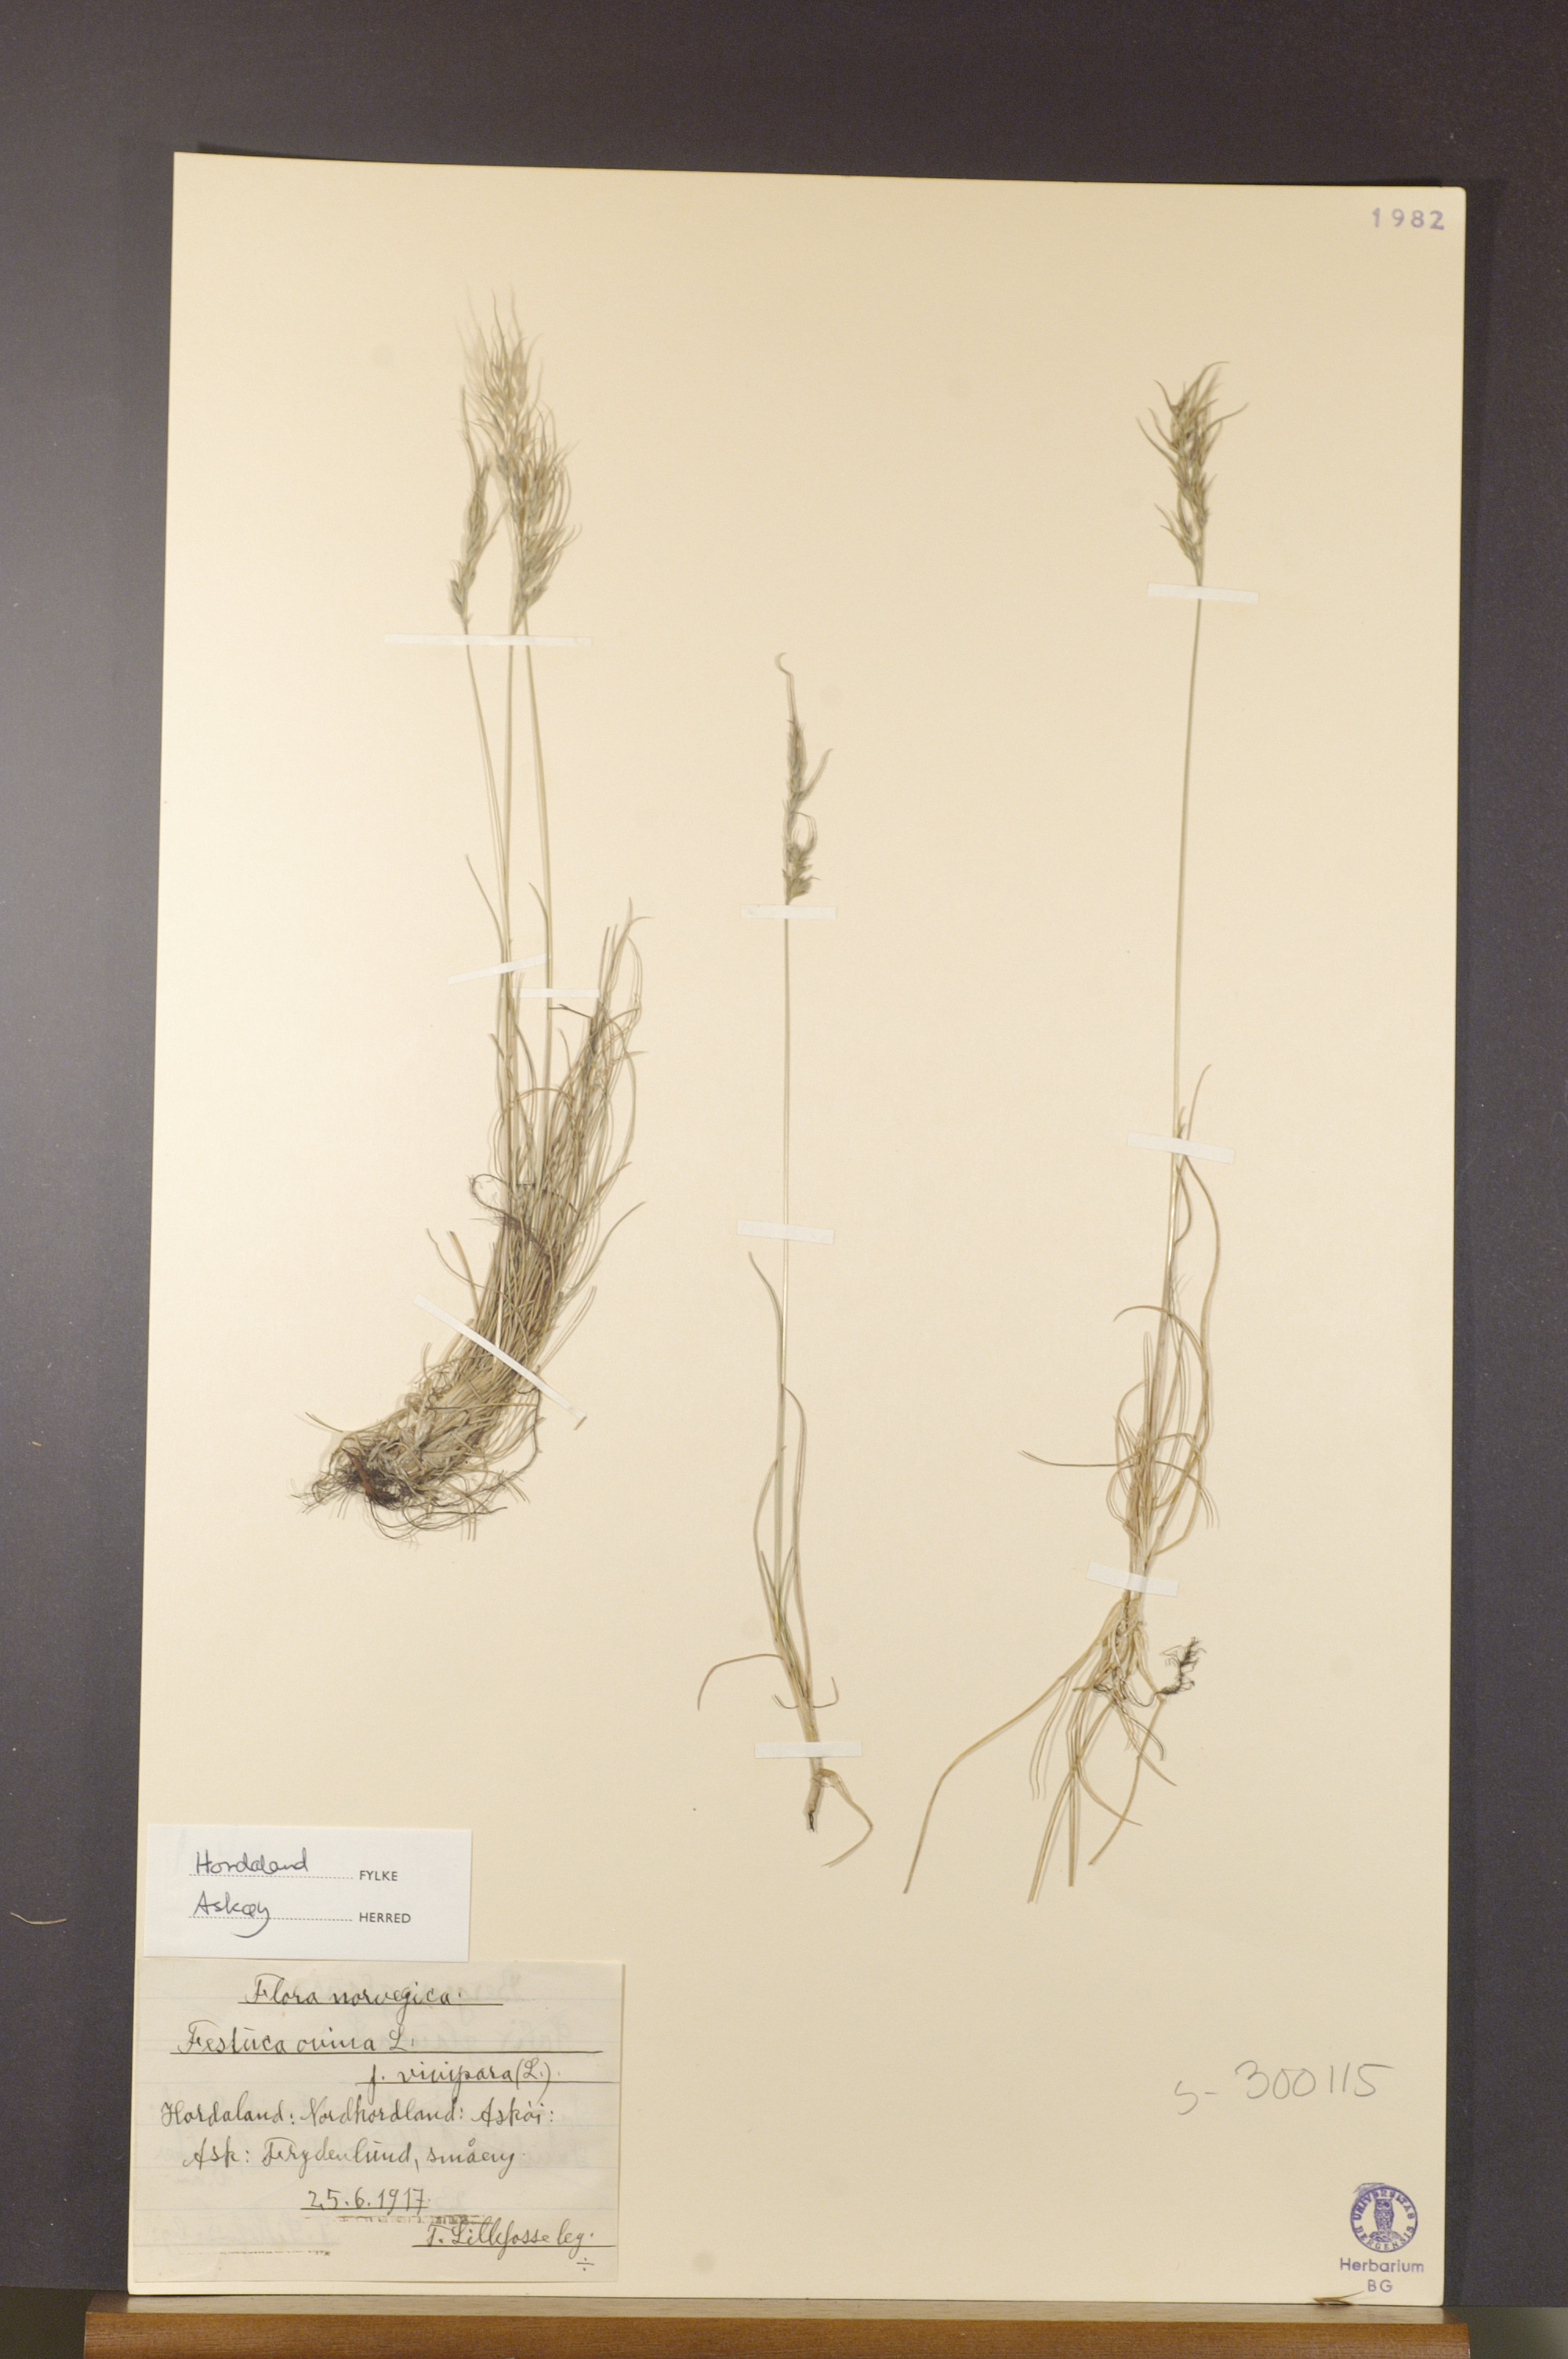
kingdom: Plantae
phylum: Tracheophyta
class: Liliopsida
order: Poales
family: Poaceae
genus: Festuca
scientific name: Festuca vivipara
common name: Viviparous sheep's-fescue
